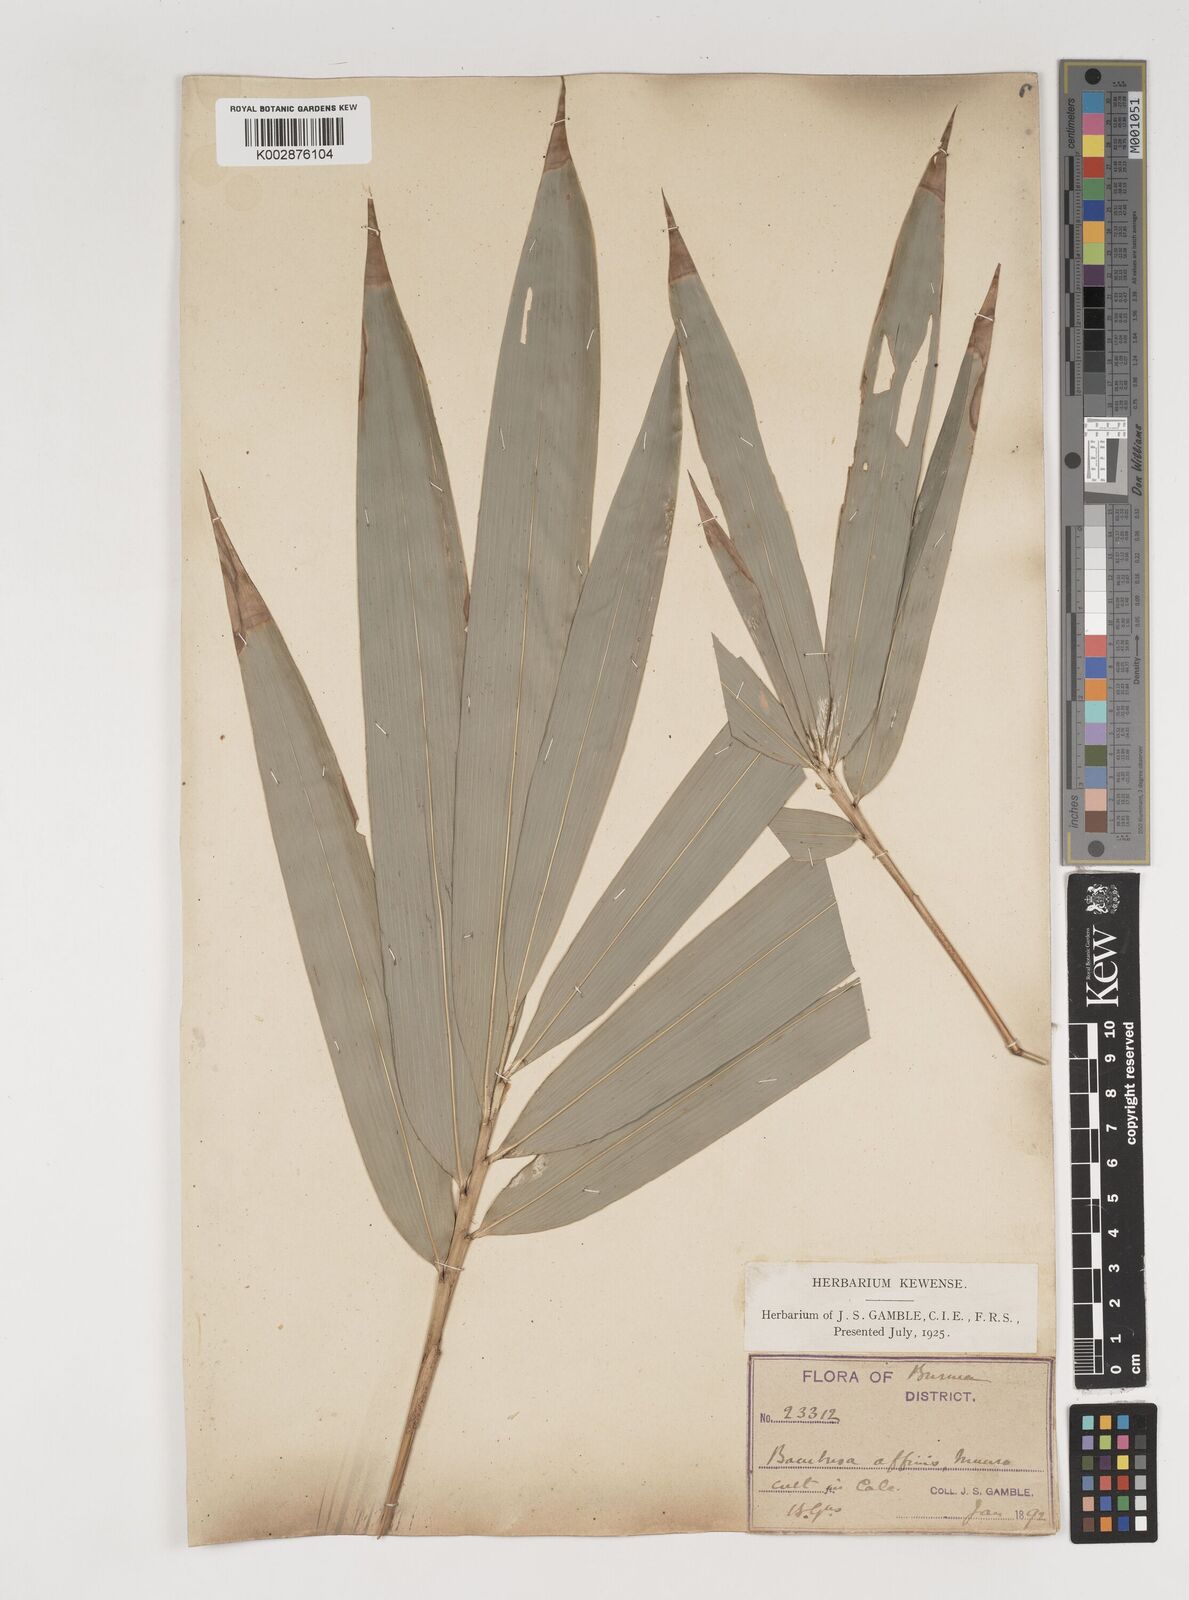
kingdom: Plantae
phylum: Tracheophyta
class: Liliopsida
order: Poales
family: Poaceae
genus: Bambusa
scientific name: Bambusa affinis
